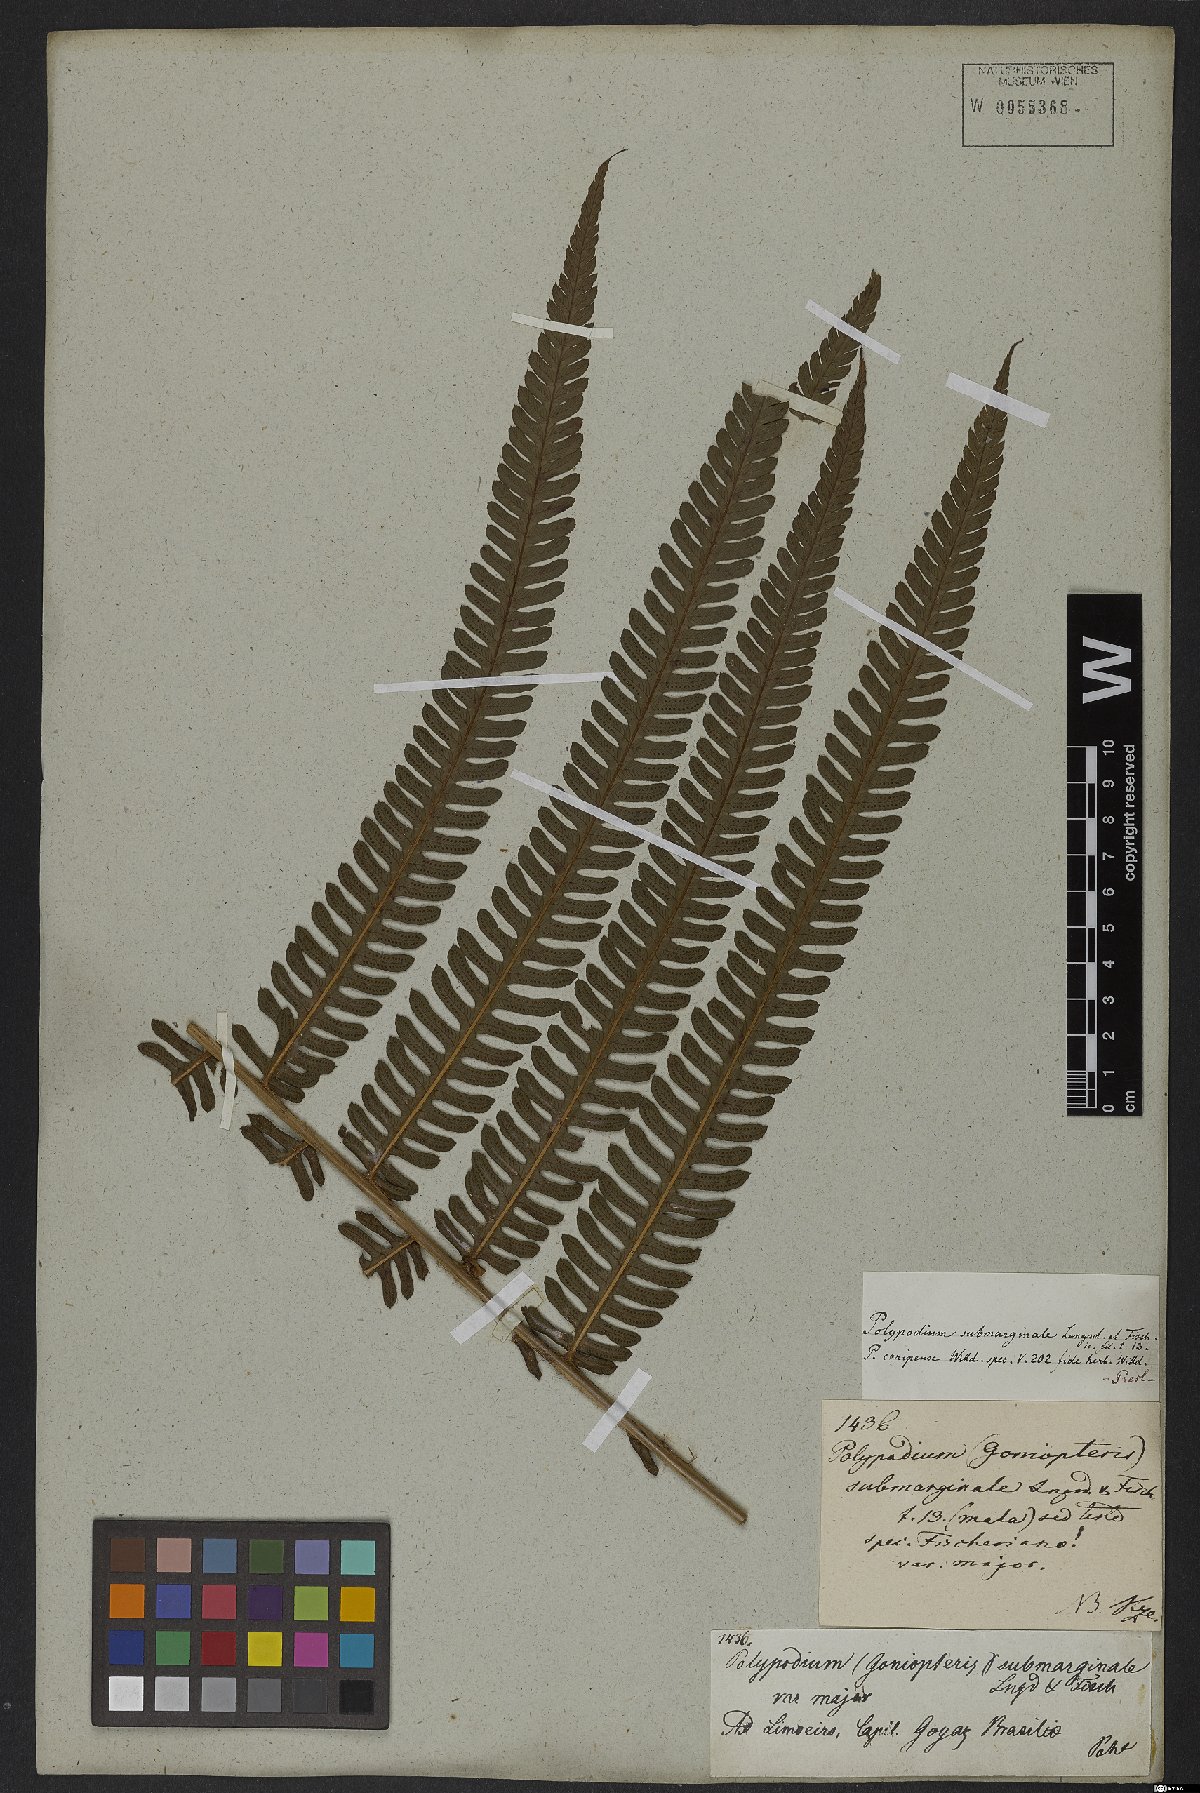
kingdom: Plantae
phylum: Tracheophyta
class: Polypodiopsida
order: Polypodiales
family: Dryopteridaceae
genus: Ctenitis
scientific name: Ctenitis submarginalis
